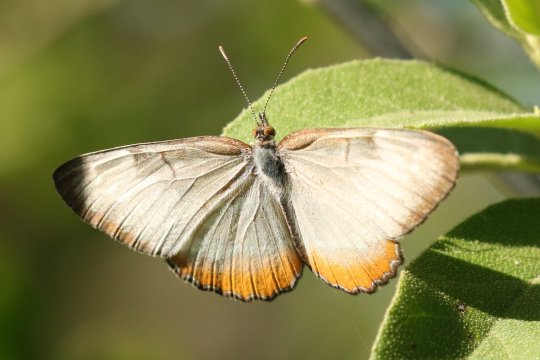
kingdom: Animalia
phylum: Arthropoda
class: Insecta
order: Lepidoptera
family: Nymphalidae
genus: Mestra
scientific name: Mestra amymone
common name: Common Mestra
